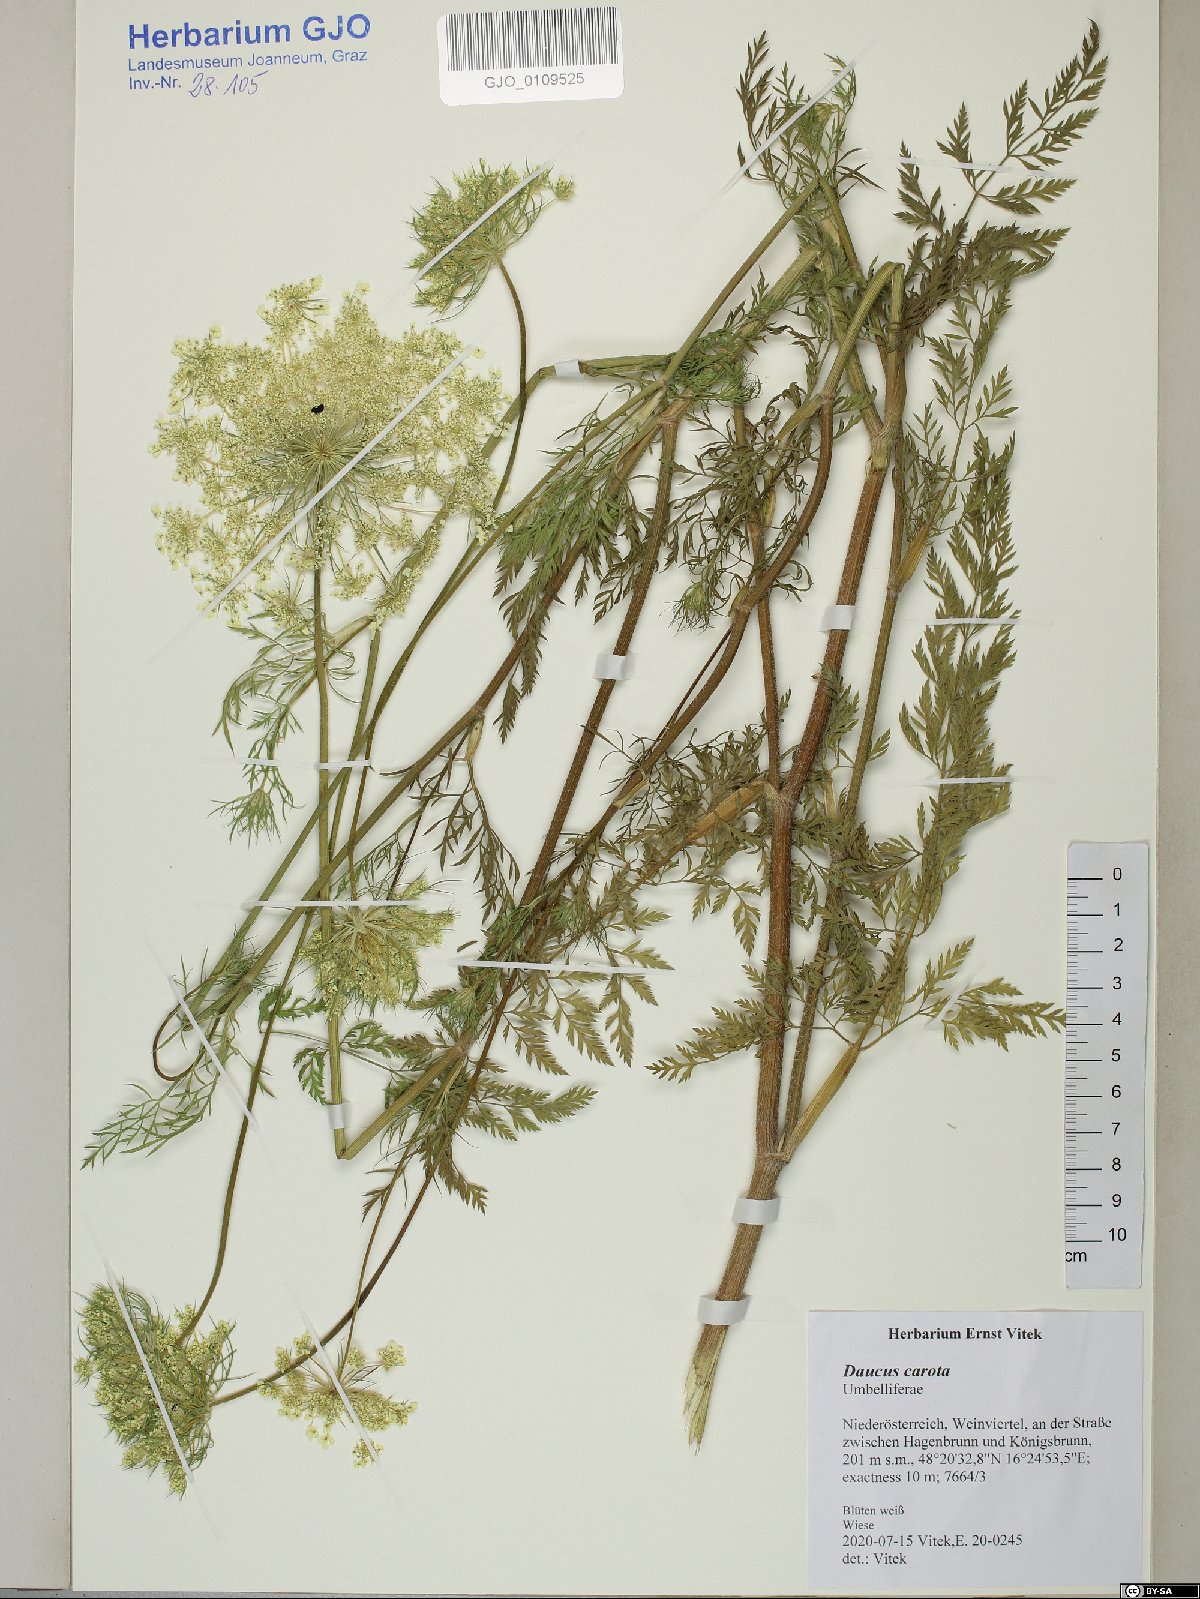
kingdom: Plantae
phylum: Tracheophyta
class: Magnoliopsida
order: Apiales
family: Apiaceae
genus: Daucus
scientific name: Daucus carota
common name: Wild carrot
